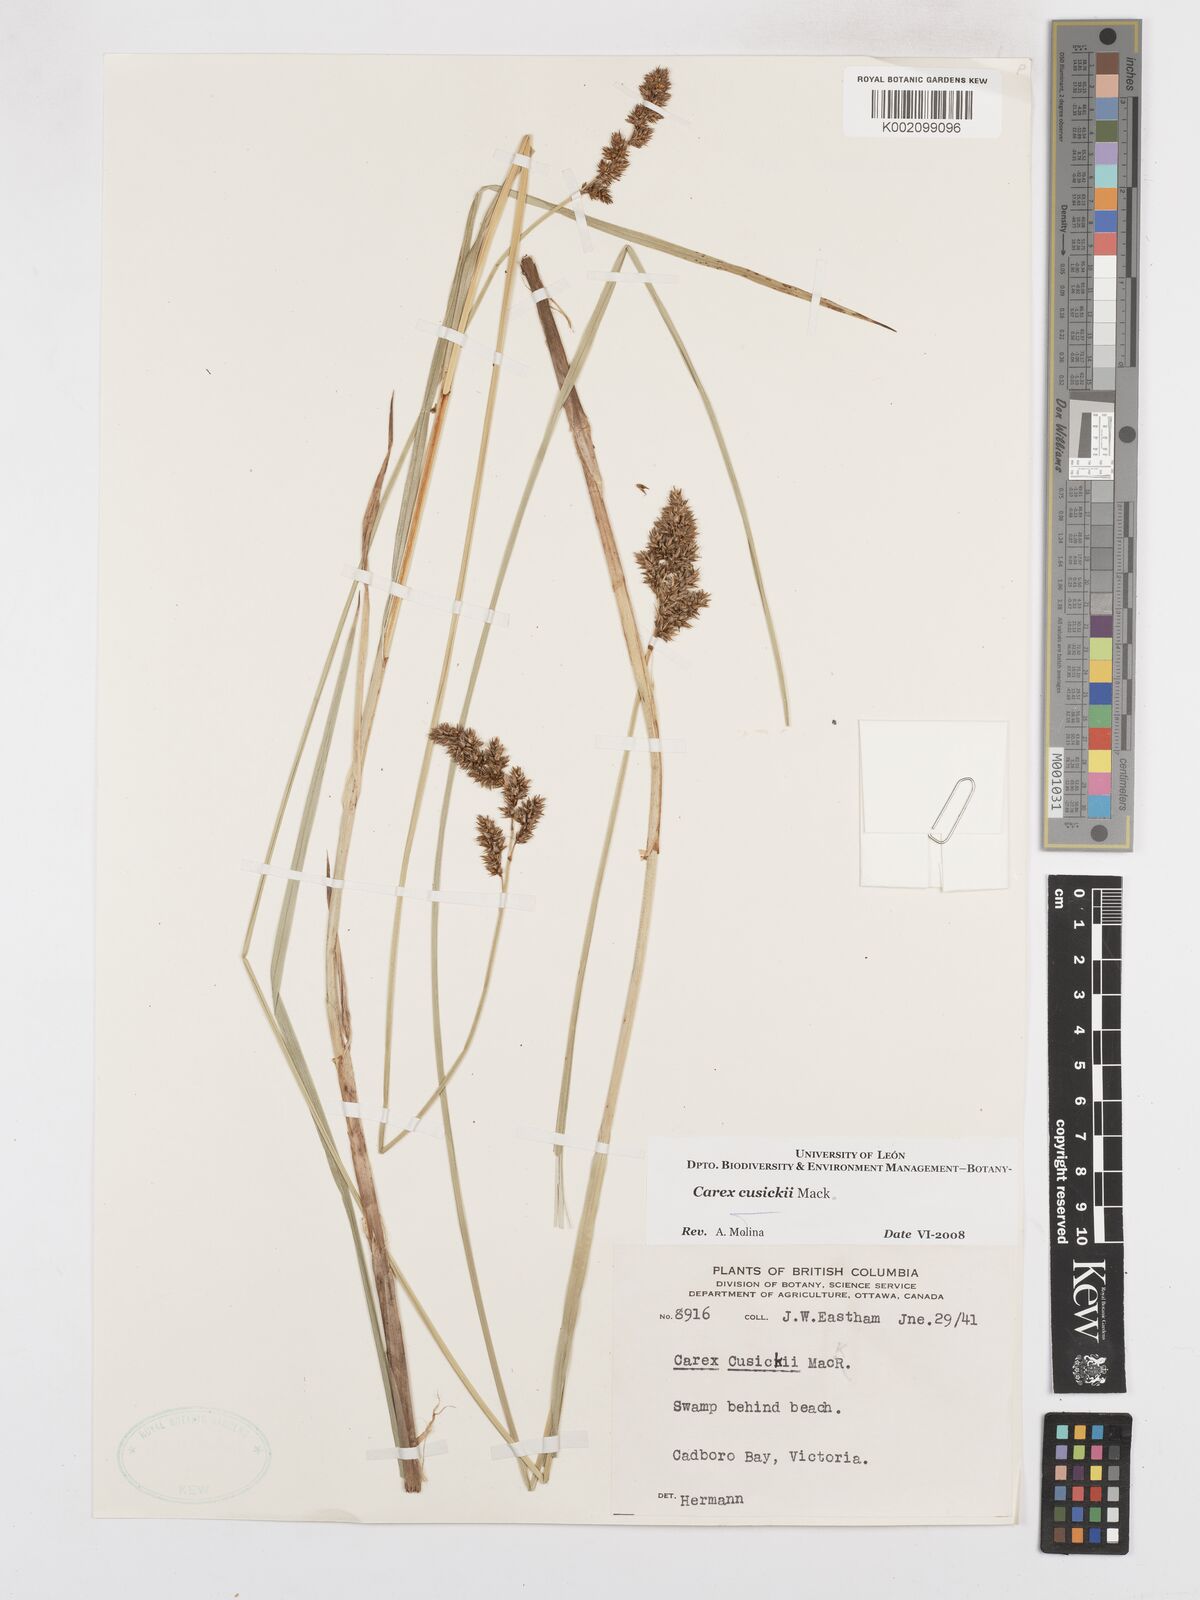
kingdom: Plantae
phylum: Tracheophyta
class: Liliopsida
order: Poales
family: Cyperaceae
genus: Carex
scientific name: Carex cusickii
